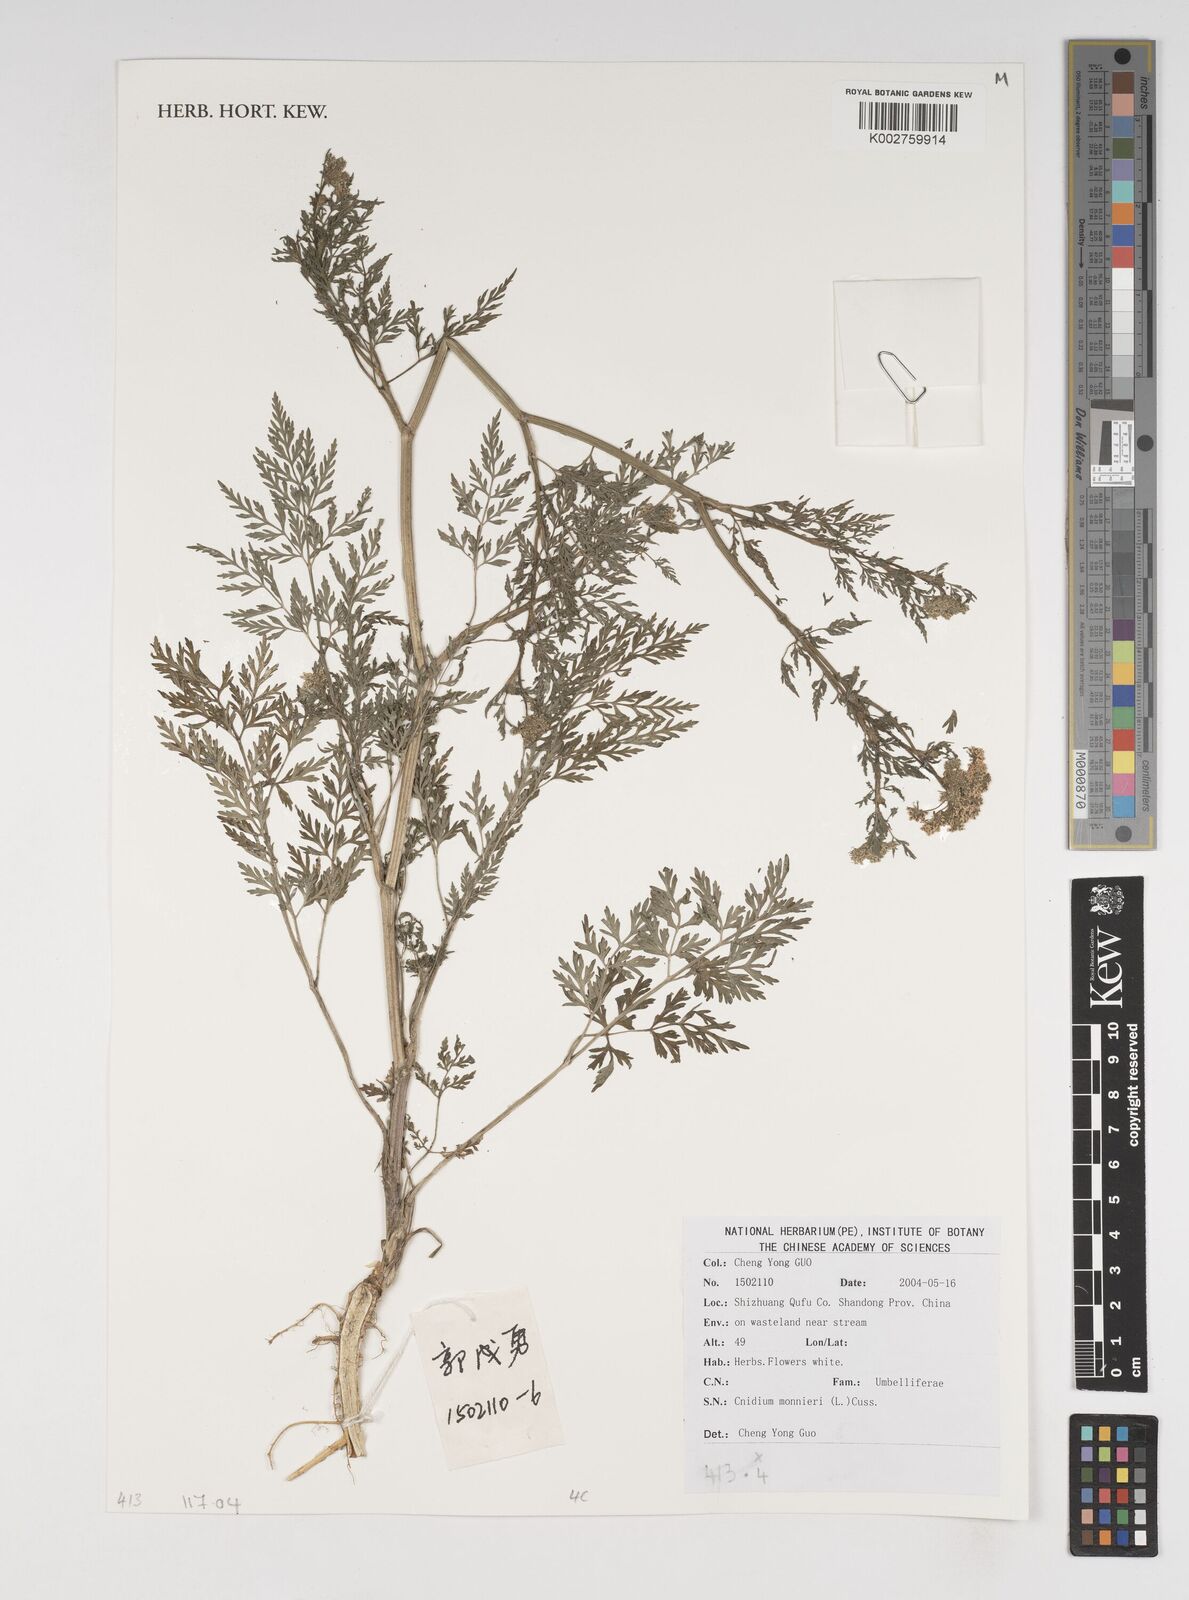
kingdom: Plantae
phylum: Tracheophyta
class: Magnoliopsida
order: Apiales
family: Apiaceae
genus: Cnidium
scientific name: Cnidium monnieri
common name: Monnier's snowparsley
